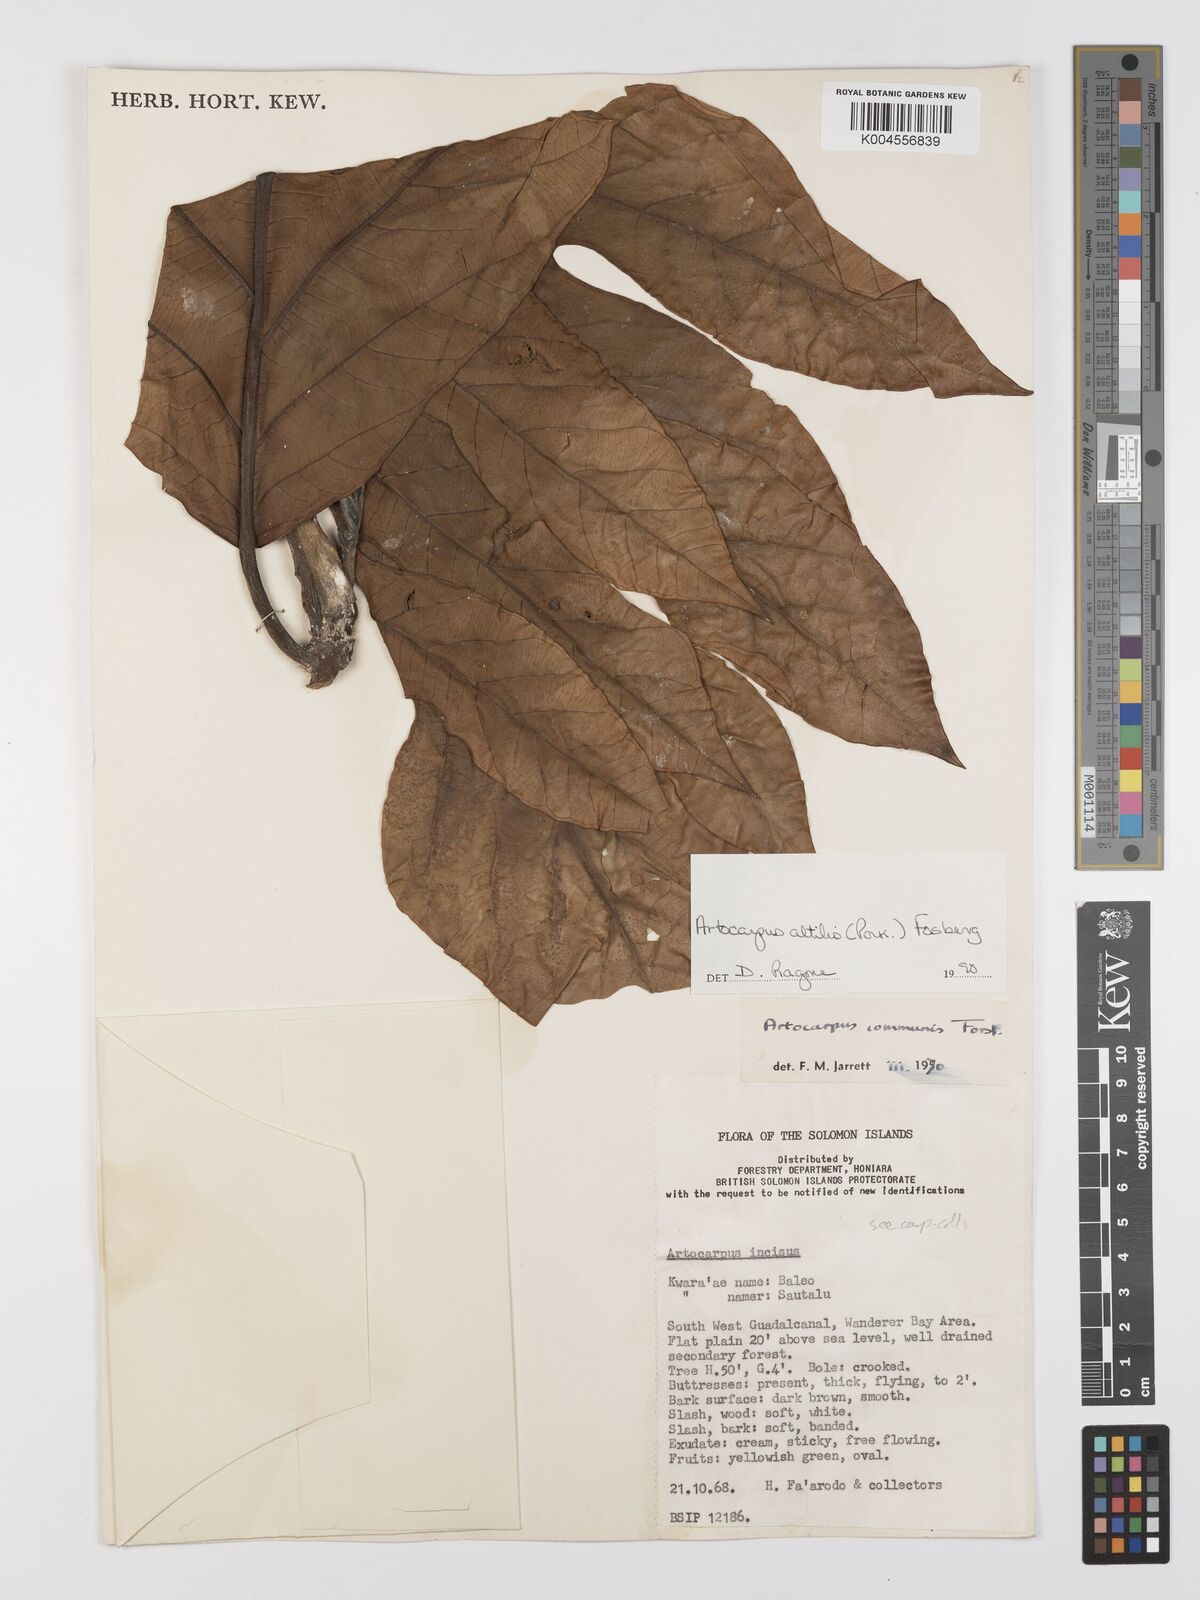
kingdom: Plantae
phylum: Tracheophyta
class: Magnoliopsida
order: Rosales
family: Moraceae
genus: Artocarpus
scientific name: Artocarpus altilis
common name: Breadfruit
